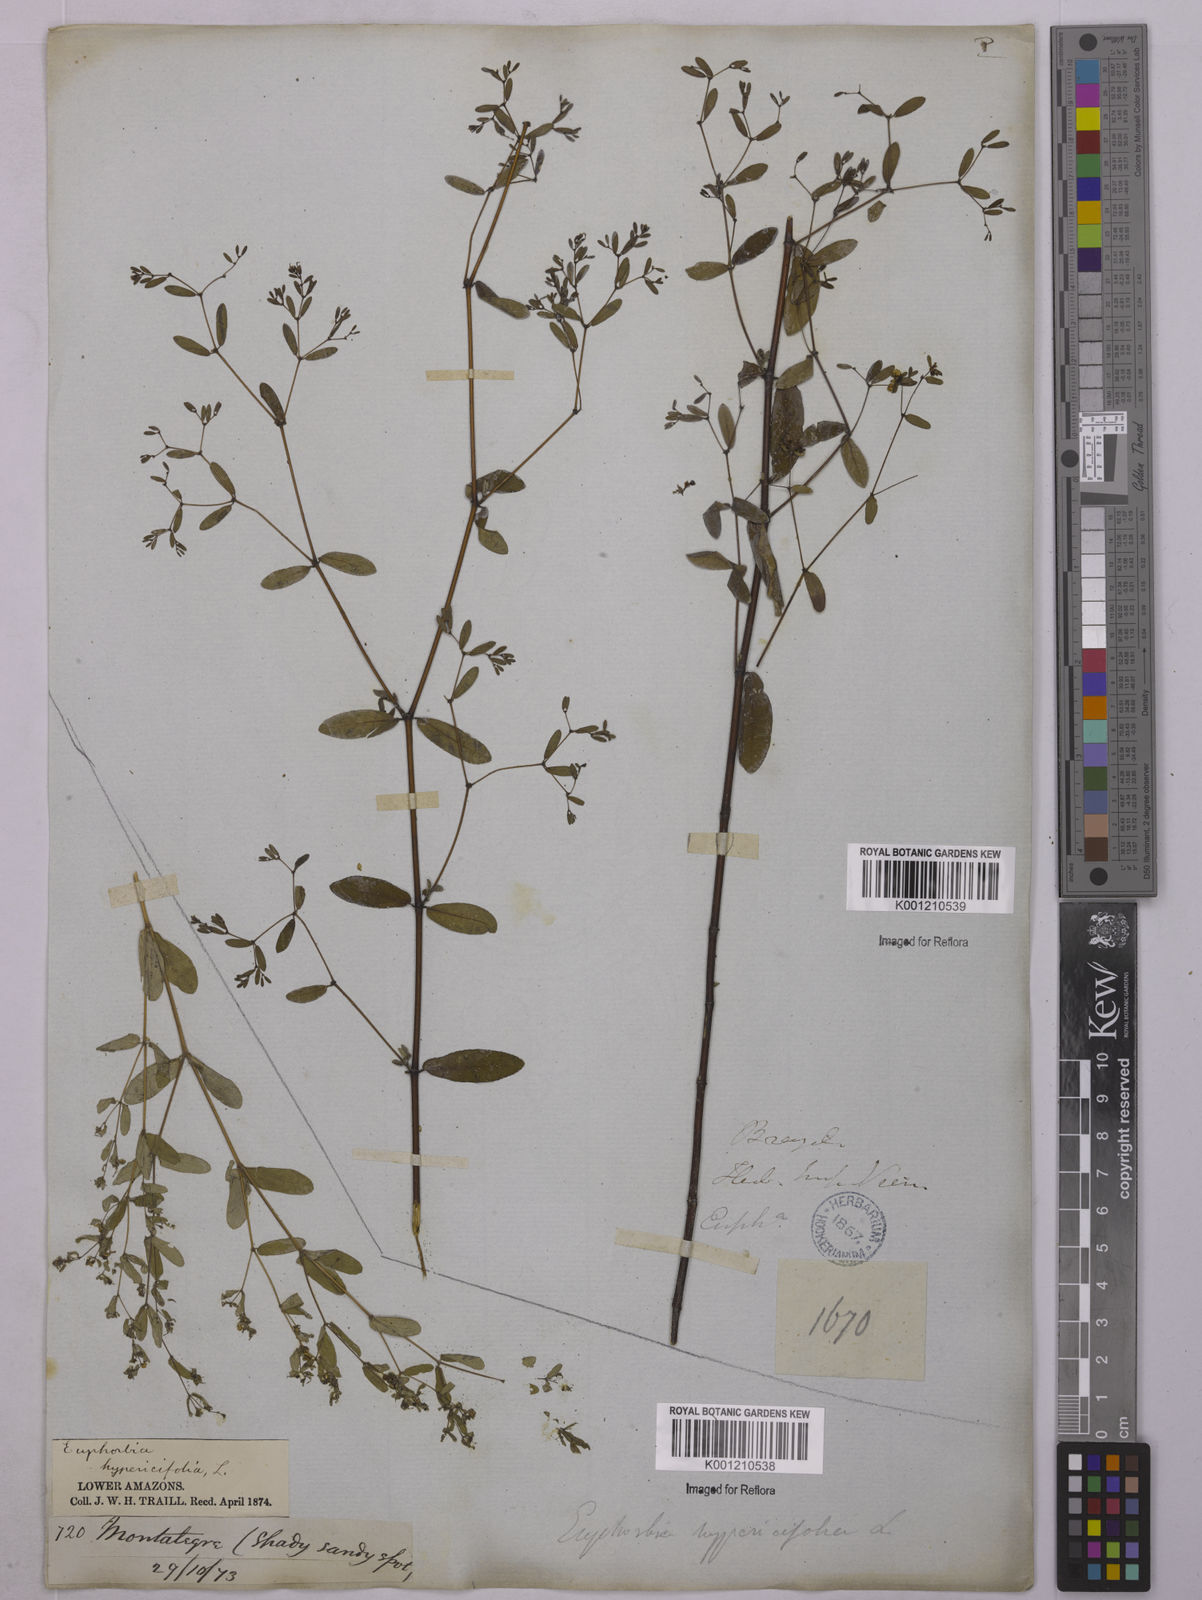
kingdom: Plantae
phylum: Tracheophyta
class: Magnoliopsida
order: Malpighiales
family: Euphorbiaceae
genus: Euphorbia
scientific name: Euphorbia hypericifolia
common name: Graceful sandmat
